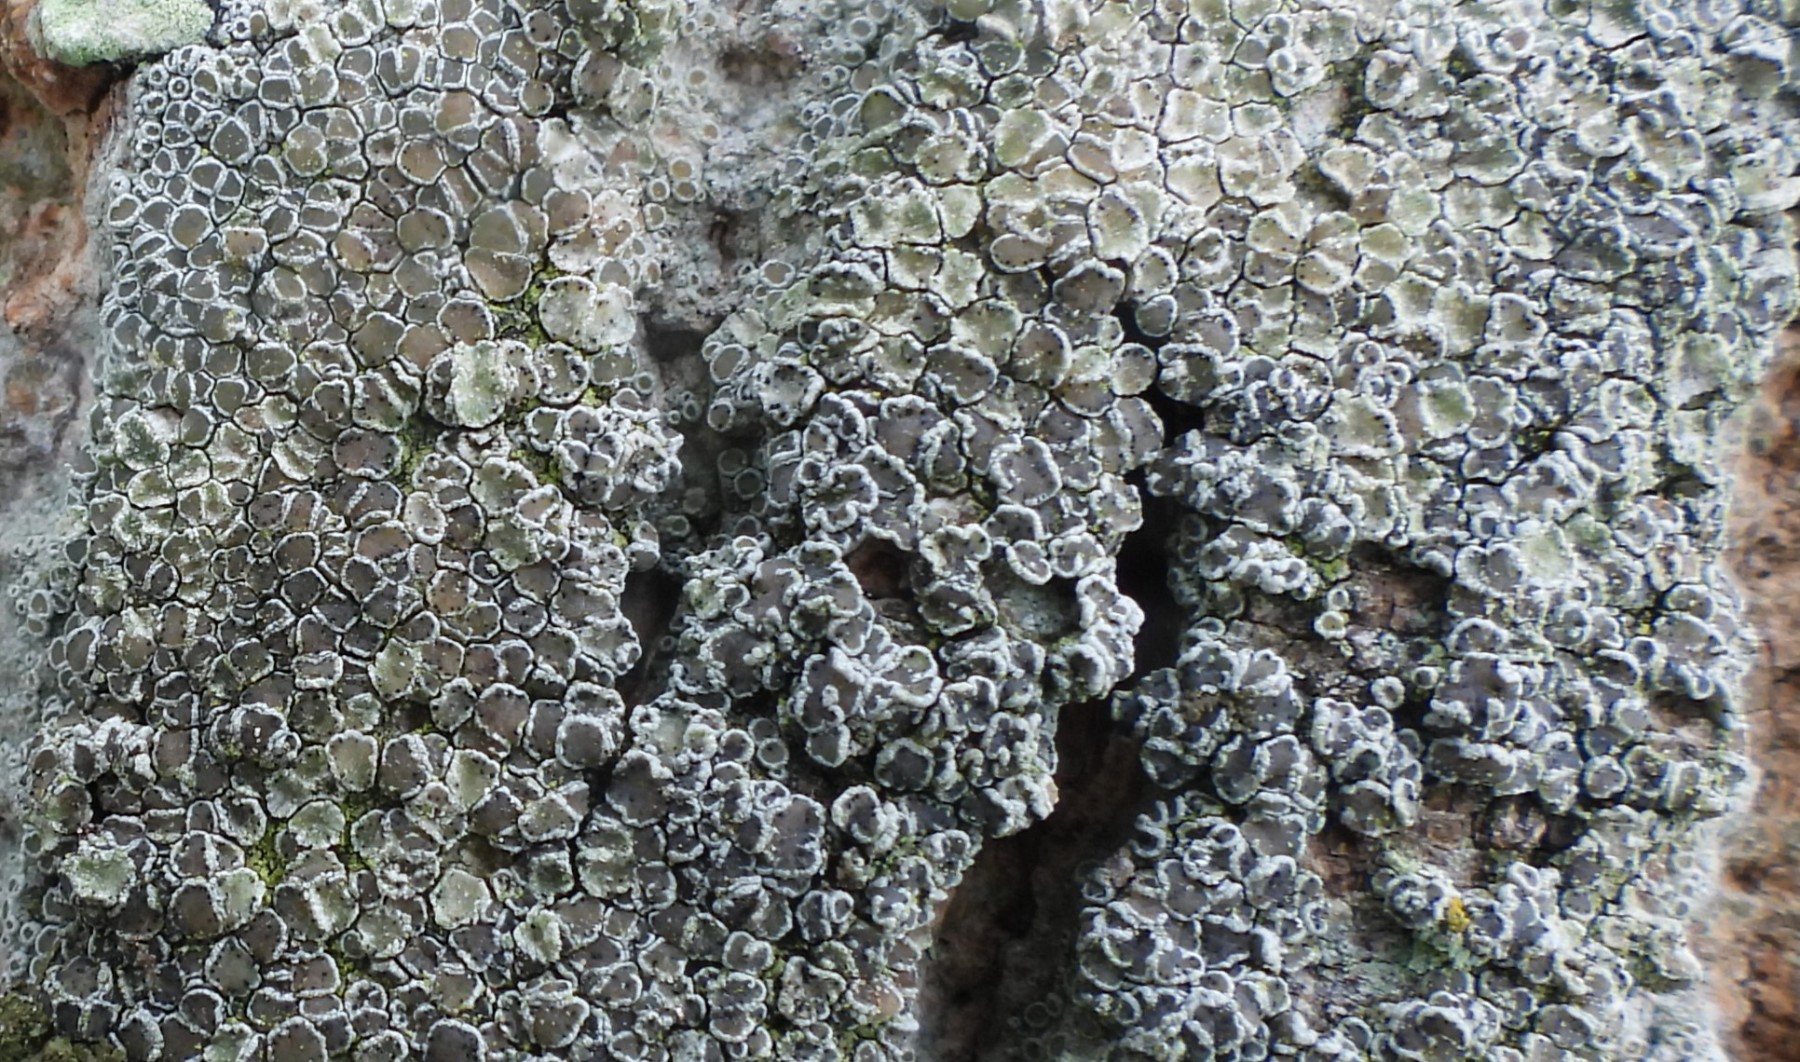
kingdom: Fungi
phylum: Ascomycota
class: Lecanoromycetes
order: Lecanorales
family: Lecanoraceae
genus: Lecanora
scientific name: Lecanora chlarotera
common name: brun kantskivelav
